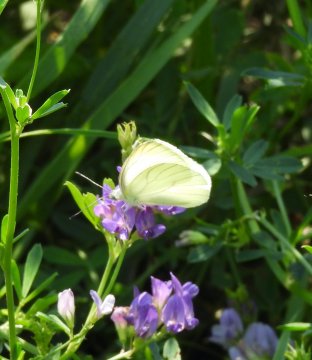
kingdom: Animalia
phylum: Arthropoda
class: Insecta
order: Lepidoptera
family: Pieridae
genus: Pieris
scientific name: Pieris rapae
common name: Cabbage White
